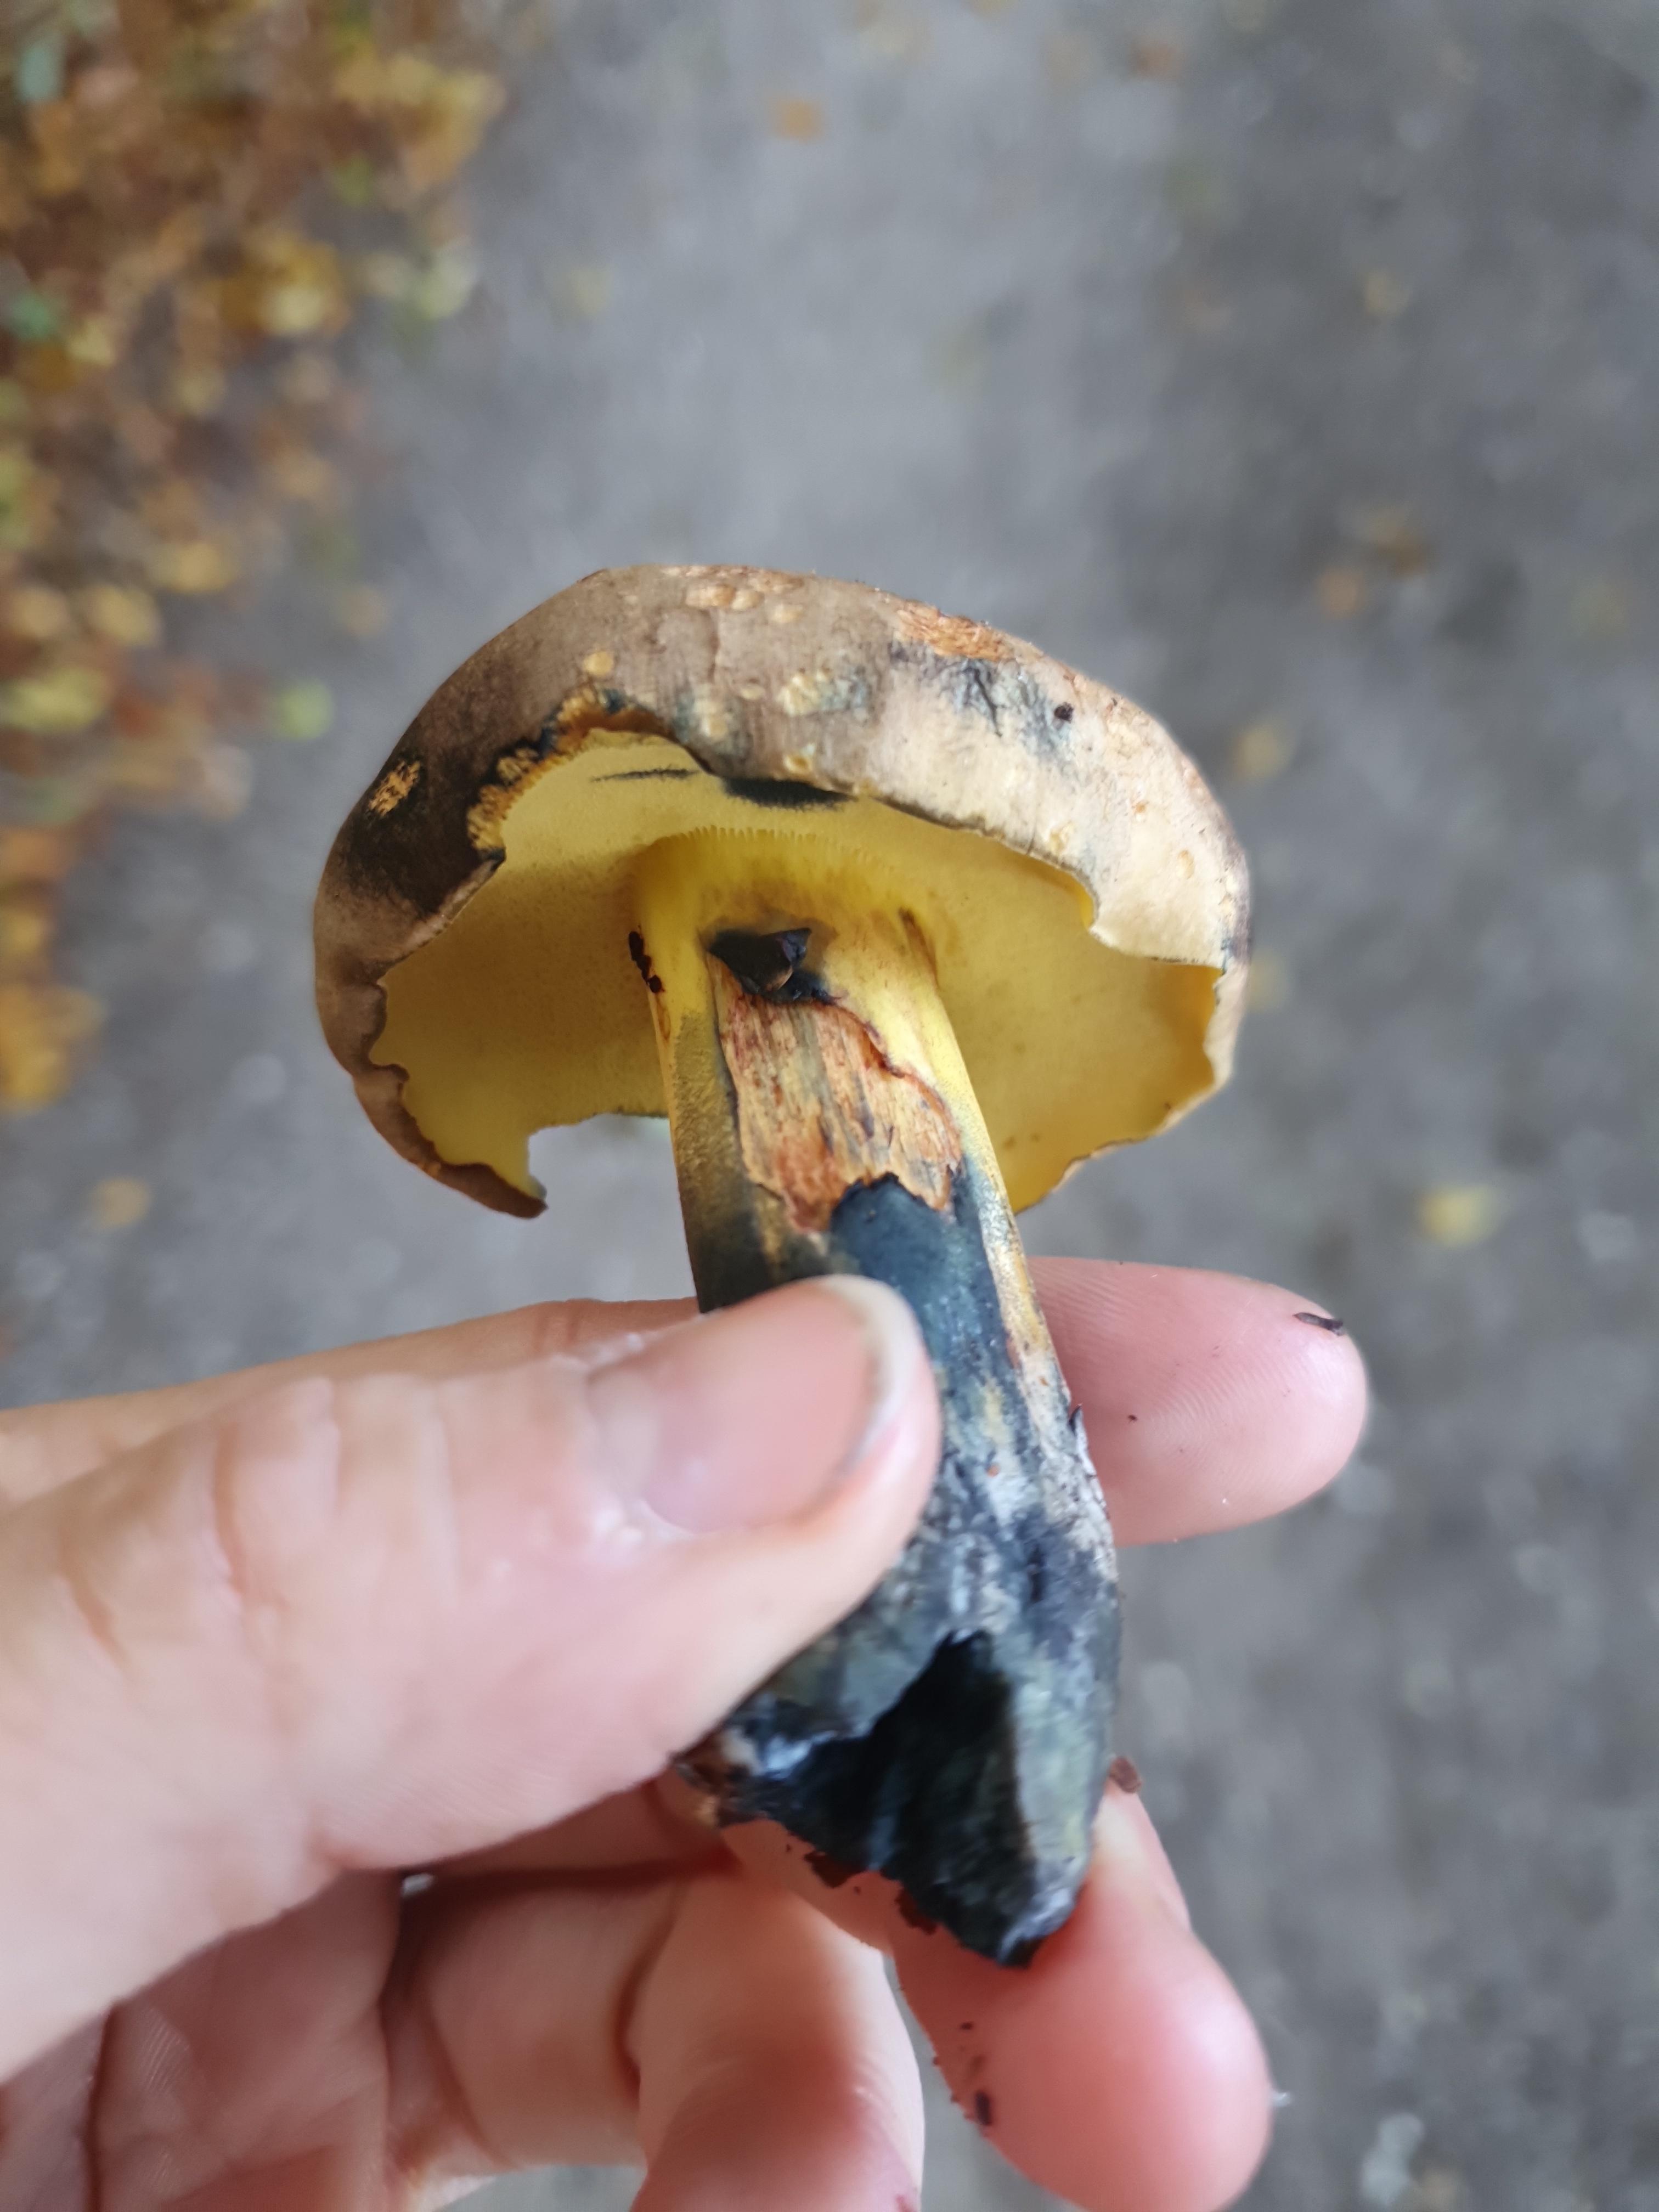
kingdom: Fungi
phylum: Basidiomycota
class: Agaricomycetes
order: Boletales
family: Boletaceae
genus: Cyanoboletus
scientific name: Cyanoboletus pulverulentus
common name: sortblånende rørhat
